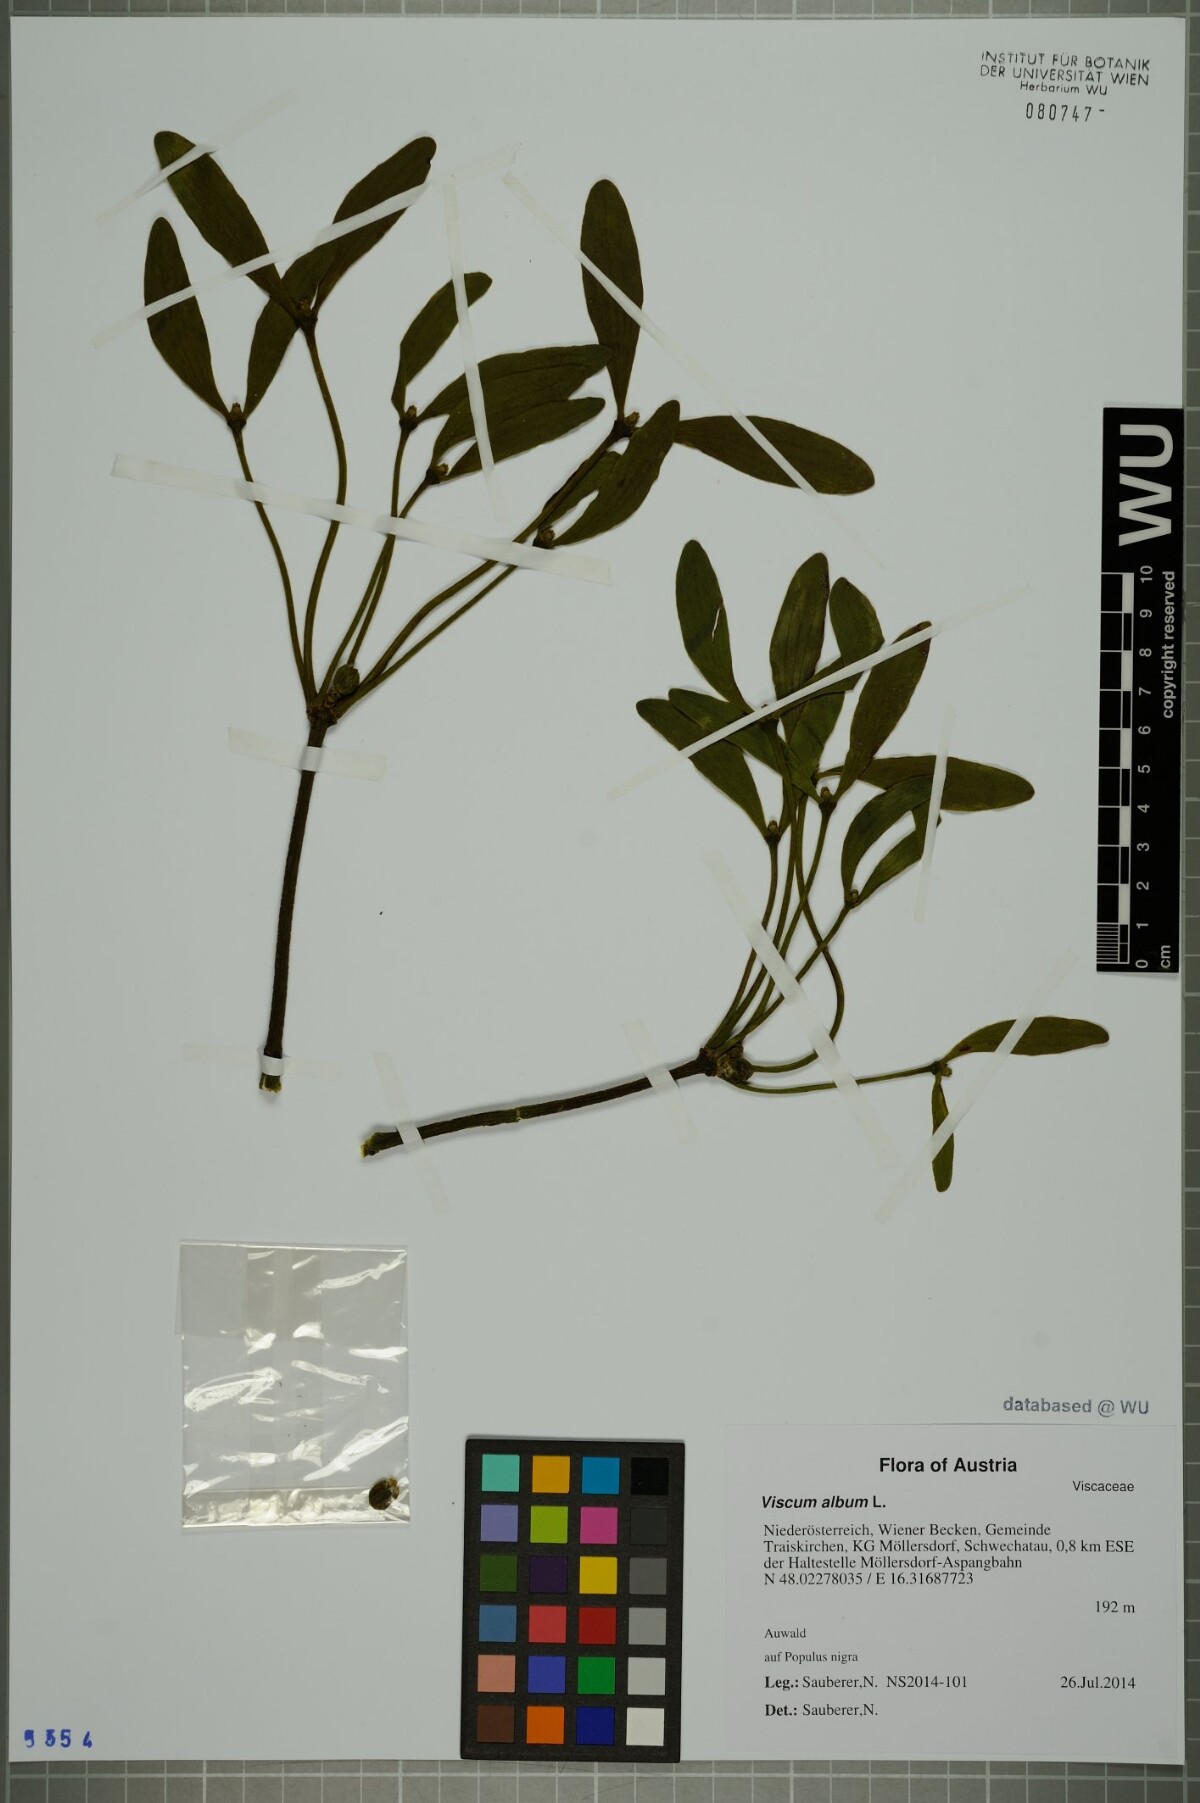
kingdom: Plantae
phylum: Tracheophyta
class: Magnoliopsida
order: Santalales
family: Viscaceae
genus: Viscum
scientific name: Viscum album
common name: Mistletoe
